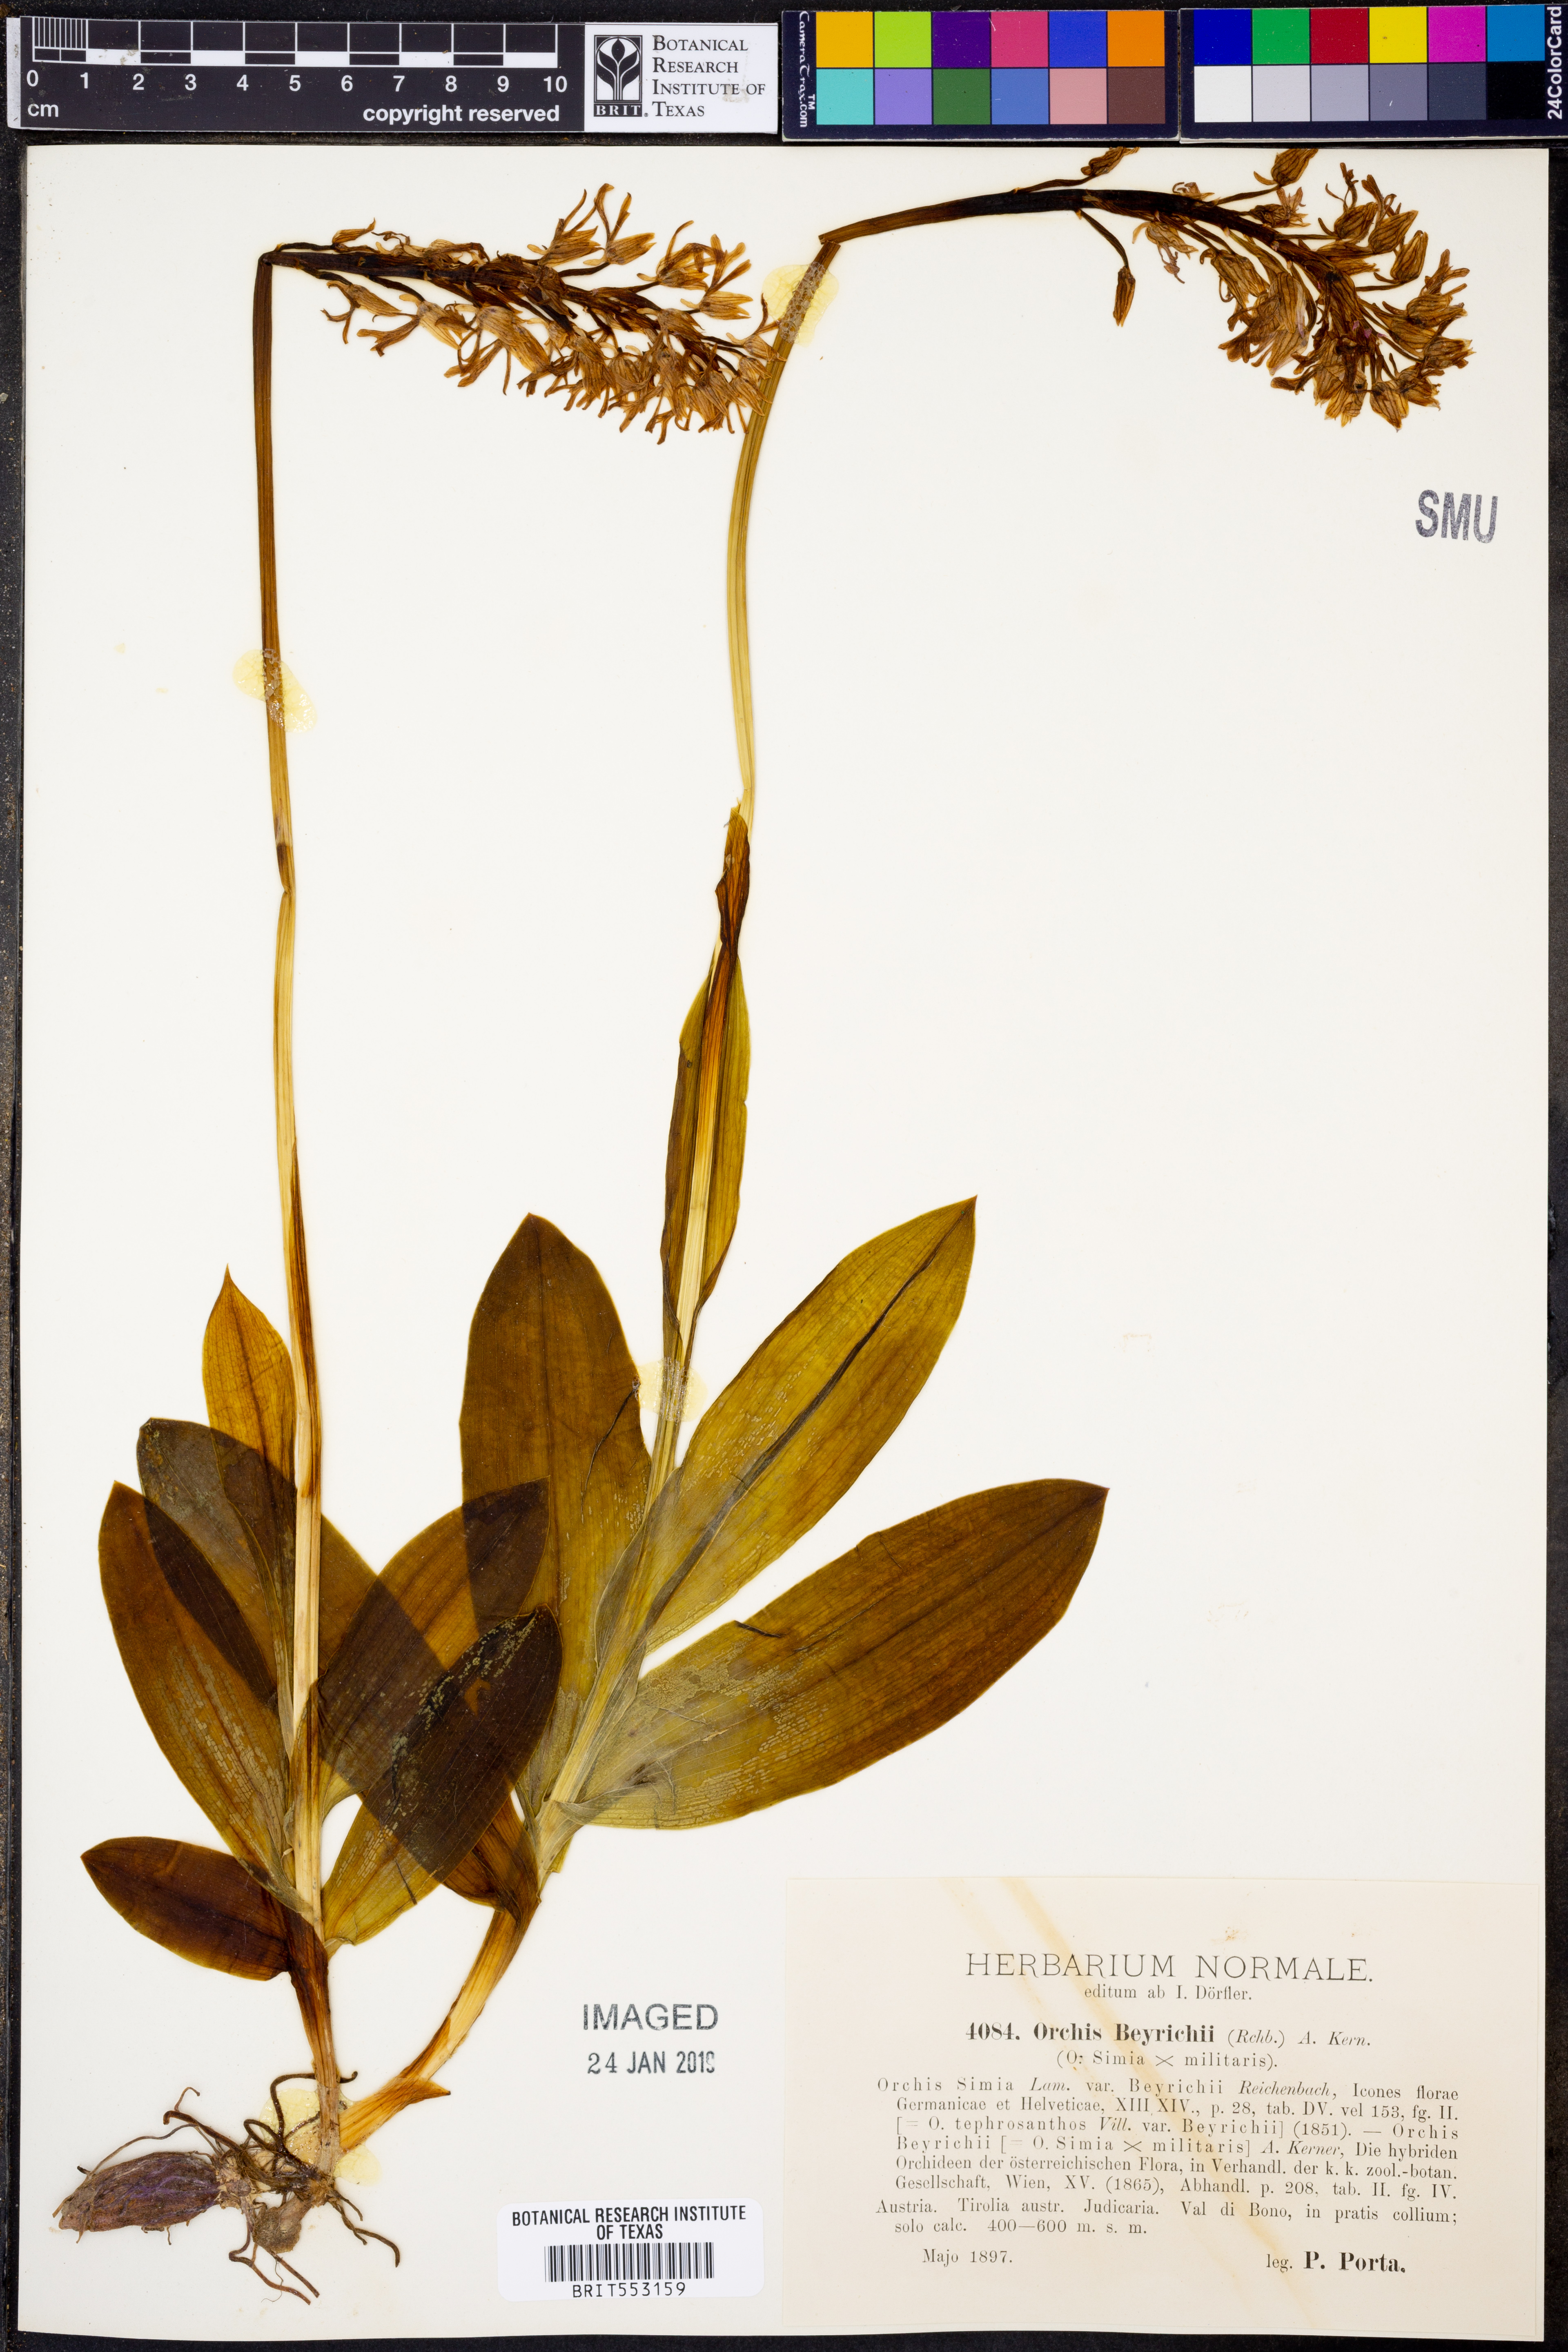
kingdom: Plantae
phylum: Tracheophyta
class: Liliopsida
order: Asparagales
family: Orchidaceae
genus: Orchis
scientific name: Orchis beyrichii
